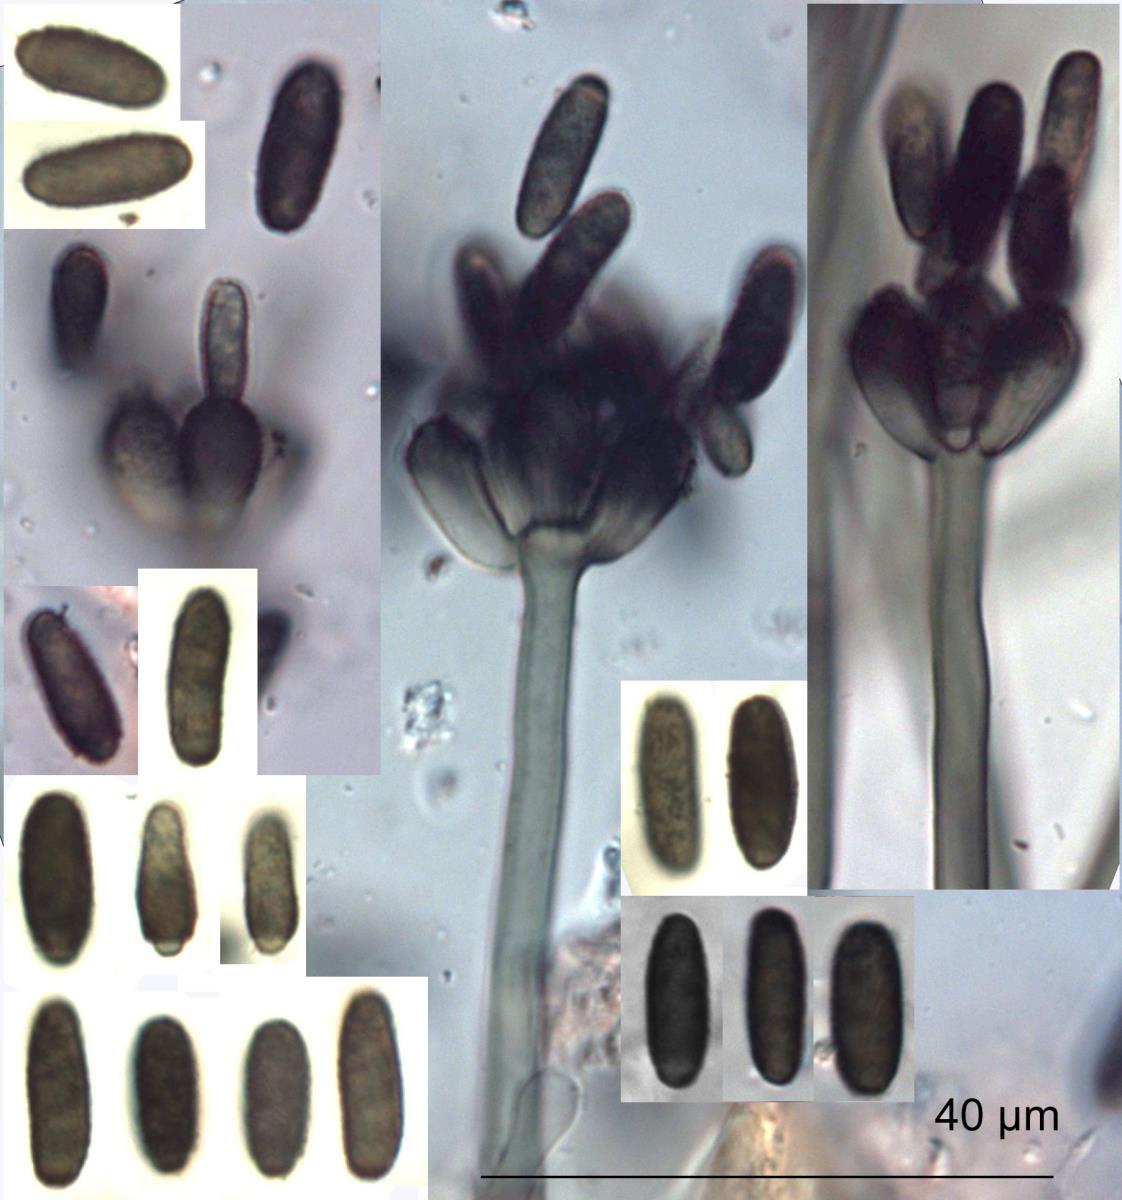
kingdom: Fungi
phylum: Ascomycota
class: Sordariomycetes
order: Hypocreales
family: Stachybotryaceae
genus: Striatibotrys
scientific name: Striatibotrys
